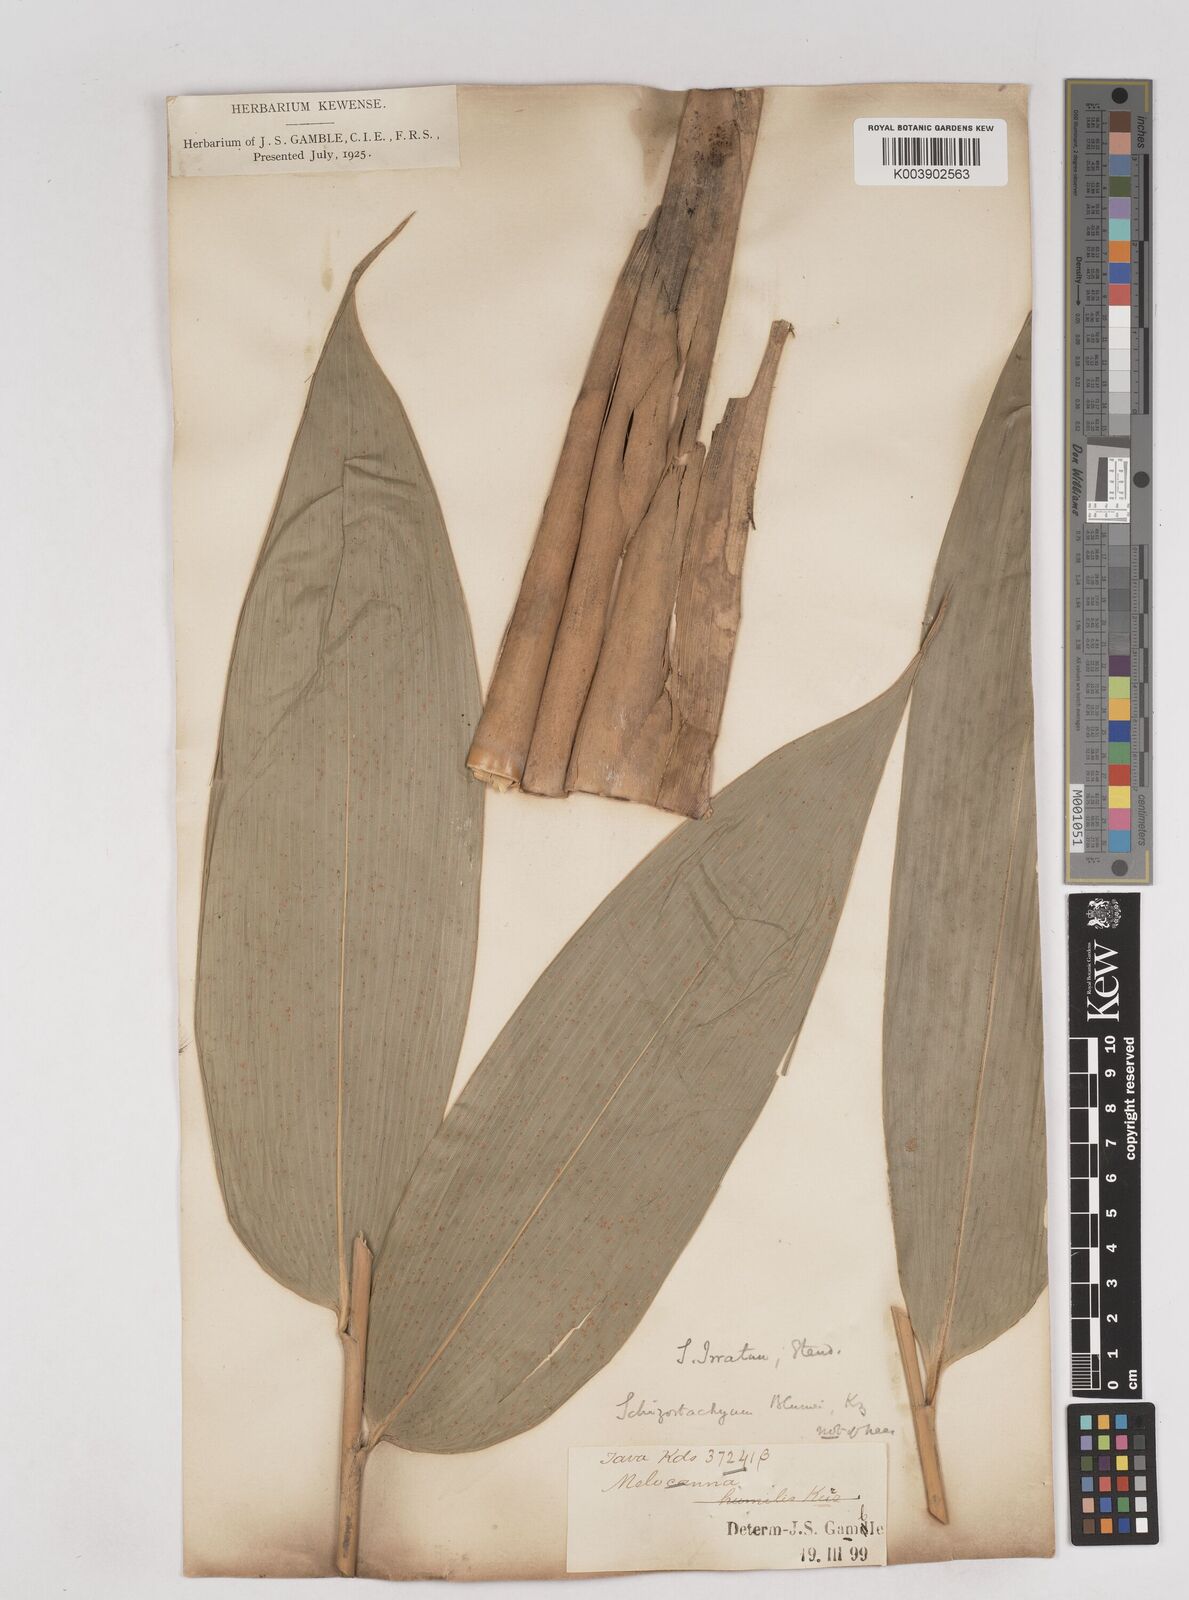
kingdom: Plantae
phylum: Tracheophyta
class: Liliopsida
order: Poales
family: Poaceae
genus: Schizostachyum
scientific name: Schizostachyum
